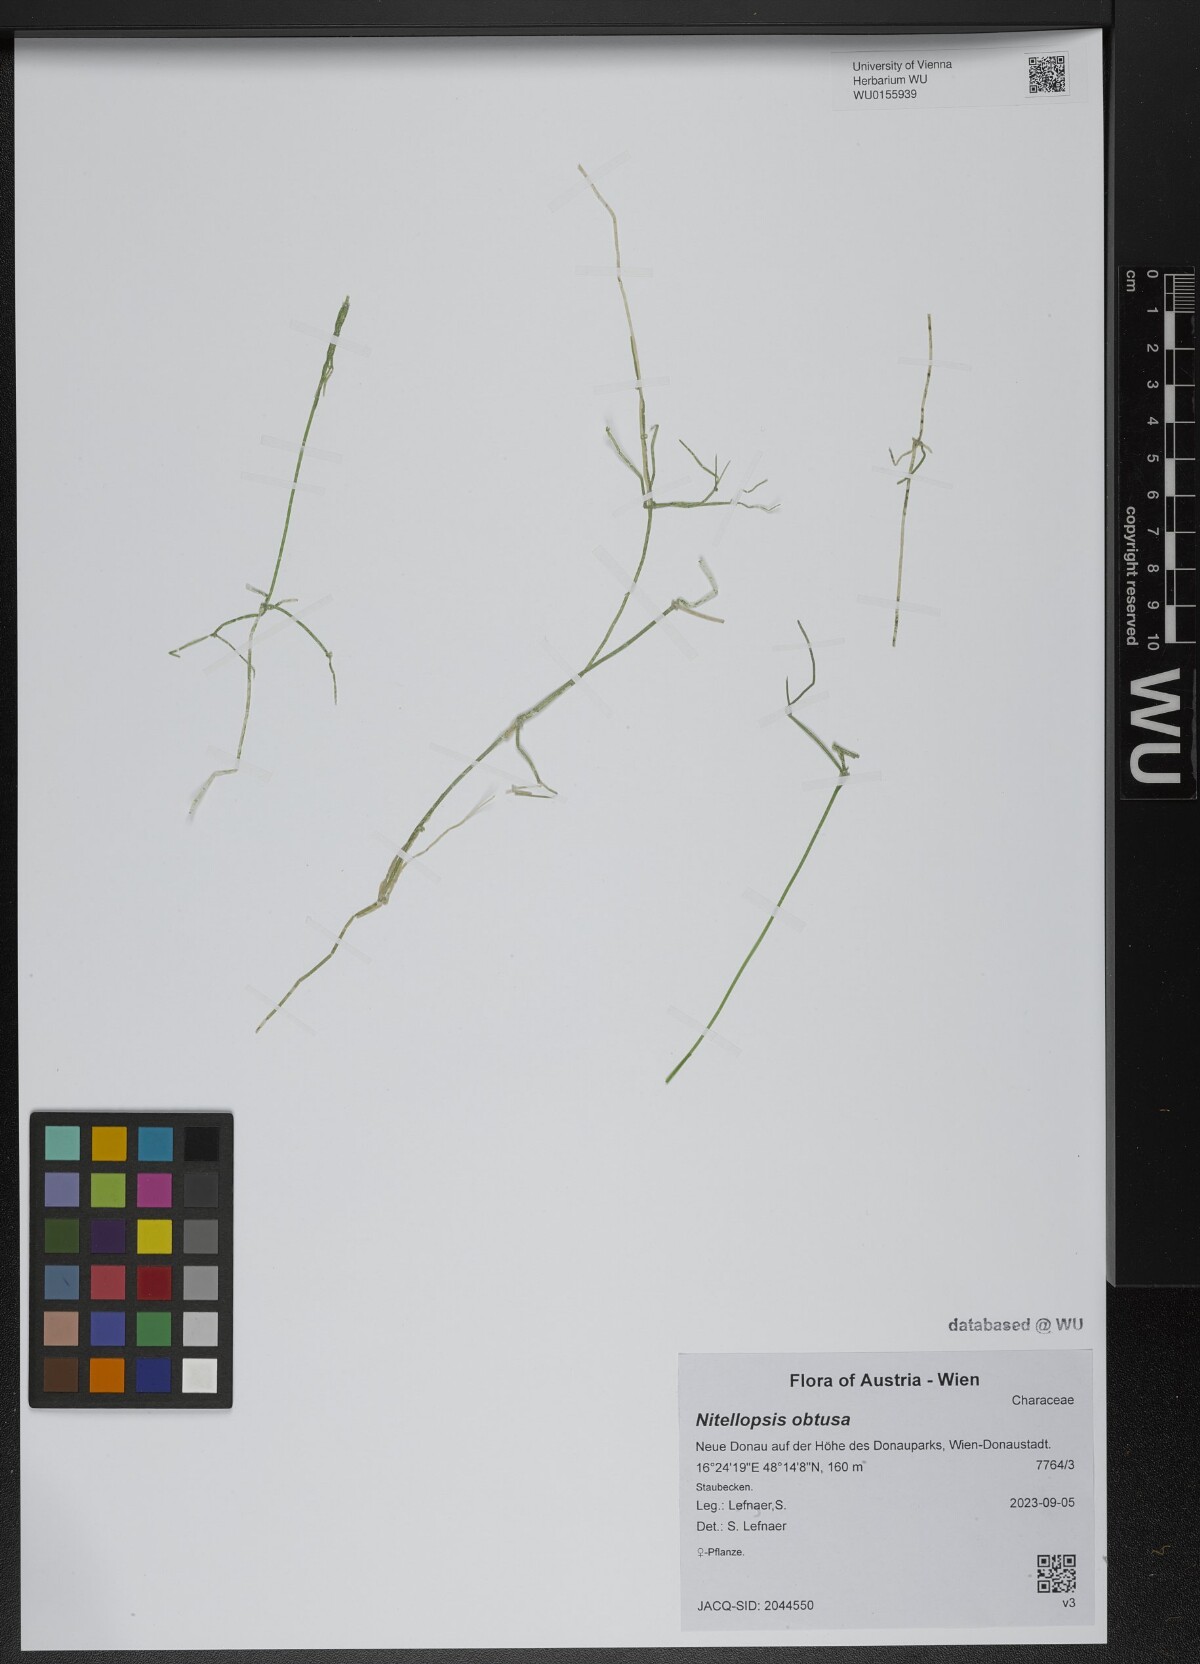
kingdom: Plantae
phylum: Charophyta
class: Charophyceae
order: Charales
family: Characeae
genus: Nitellopsis
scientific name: Nitellopsis obtusa
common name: Starry stonewort
